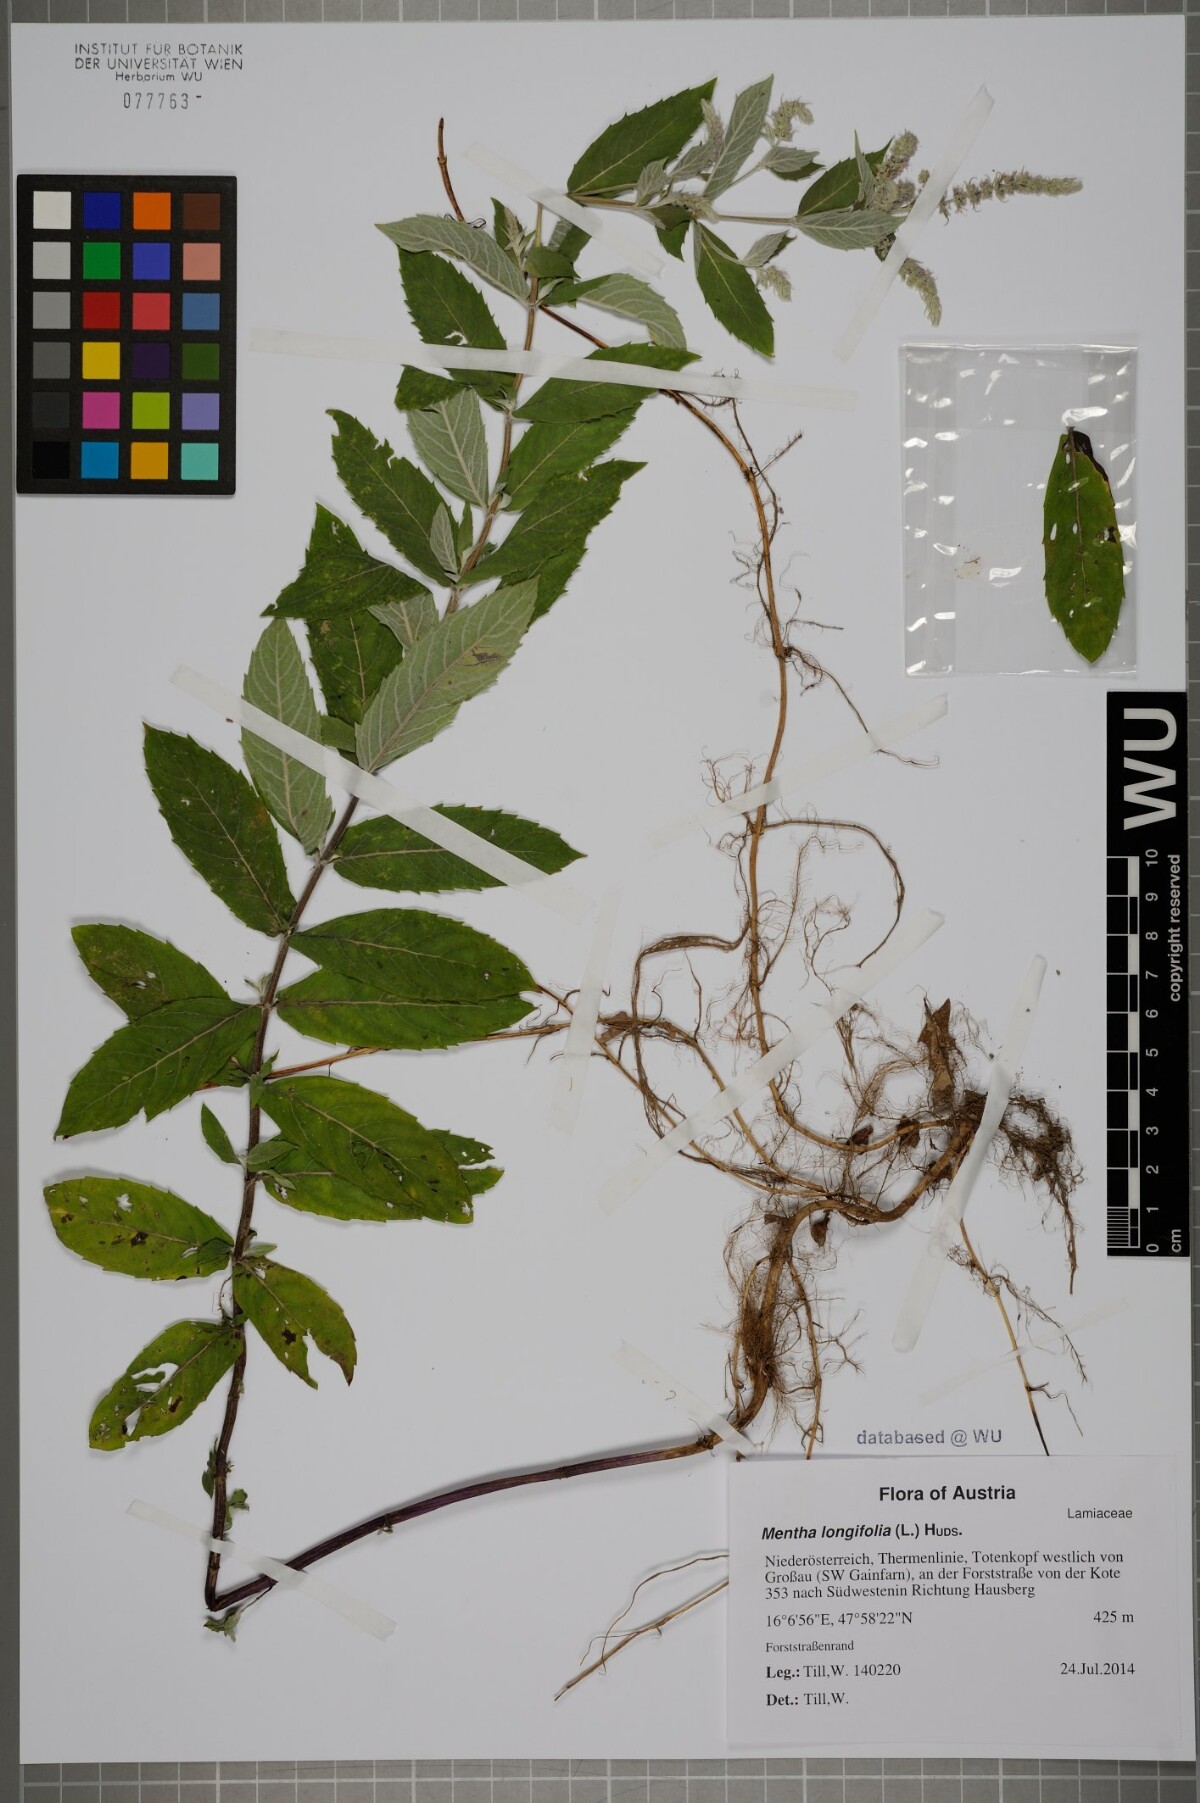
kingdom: Plantae
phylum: Tracheophyta
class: Magnoliopsida
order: Lamiales
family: Lamiaceae
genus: Mentha
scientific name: Mentha longifolia
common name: Horse mint
